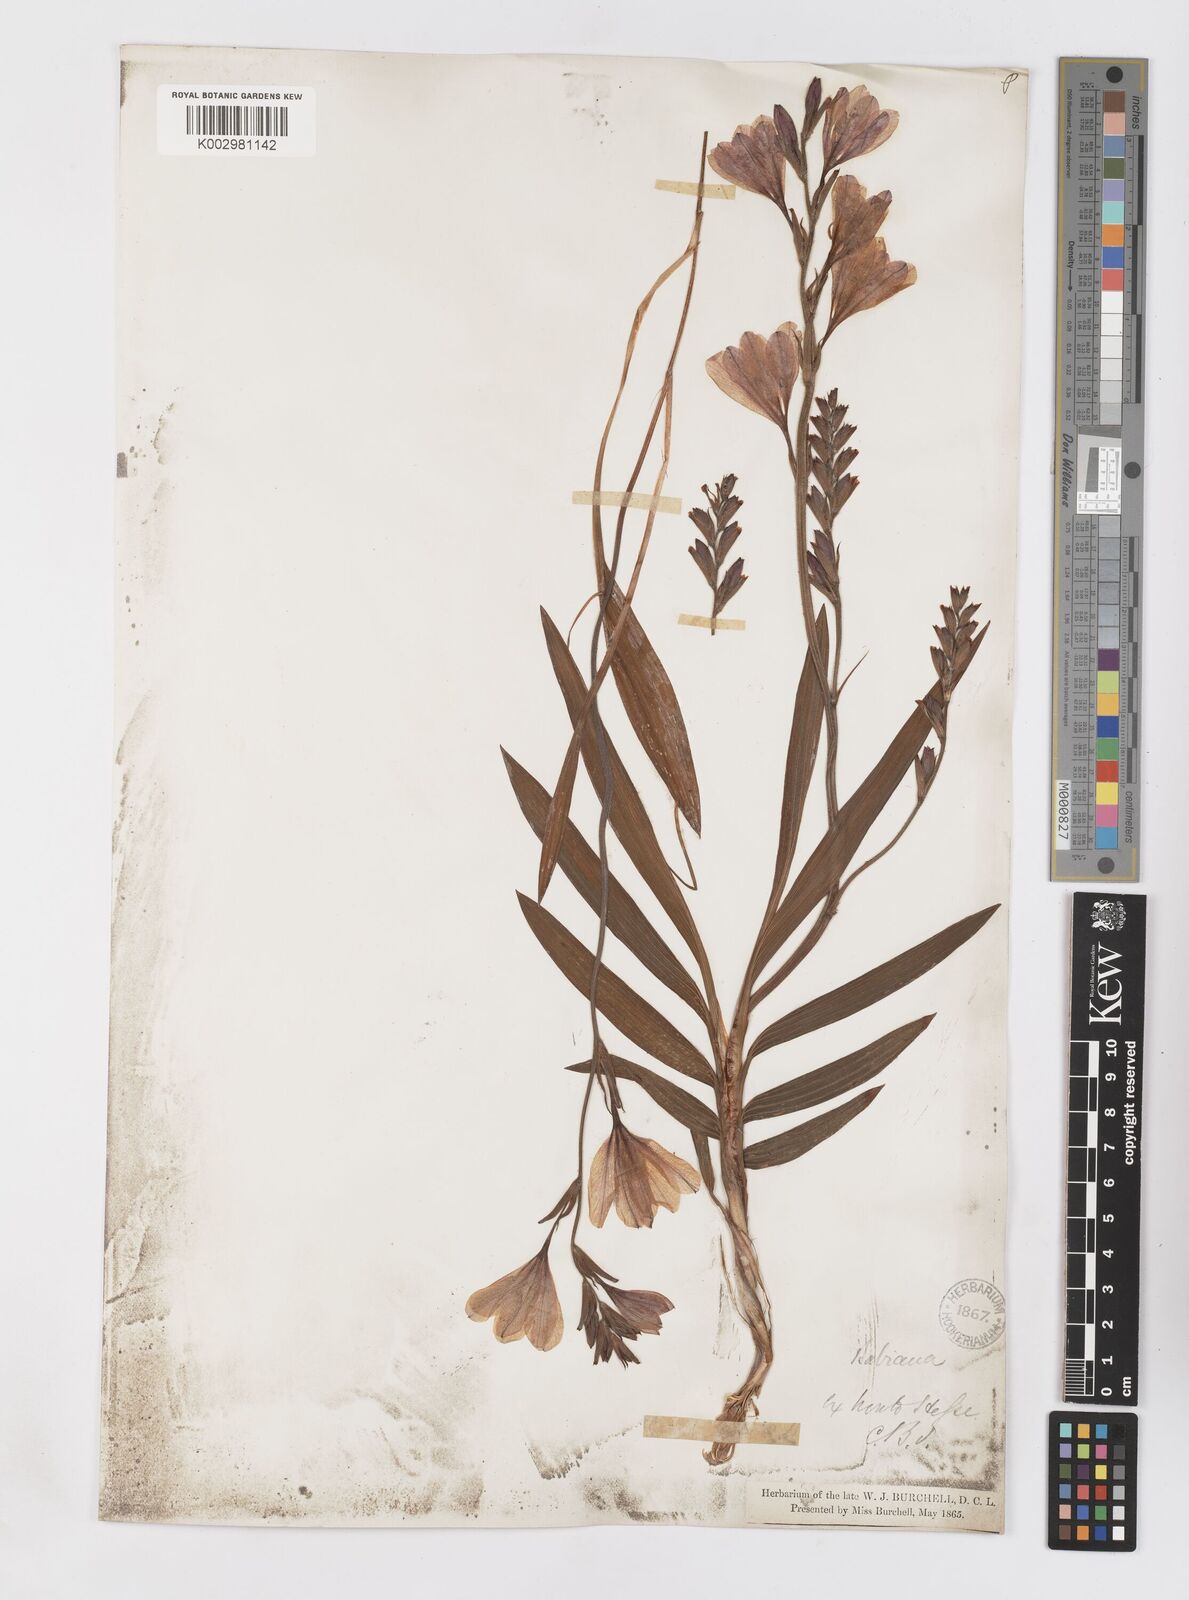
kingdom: Plantae
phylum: Tracheophyta
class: Liliopsida
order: Asparagales
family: Iridaceae
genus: Babiana
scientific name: Babiana
